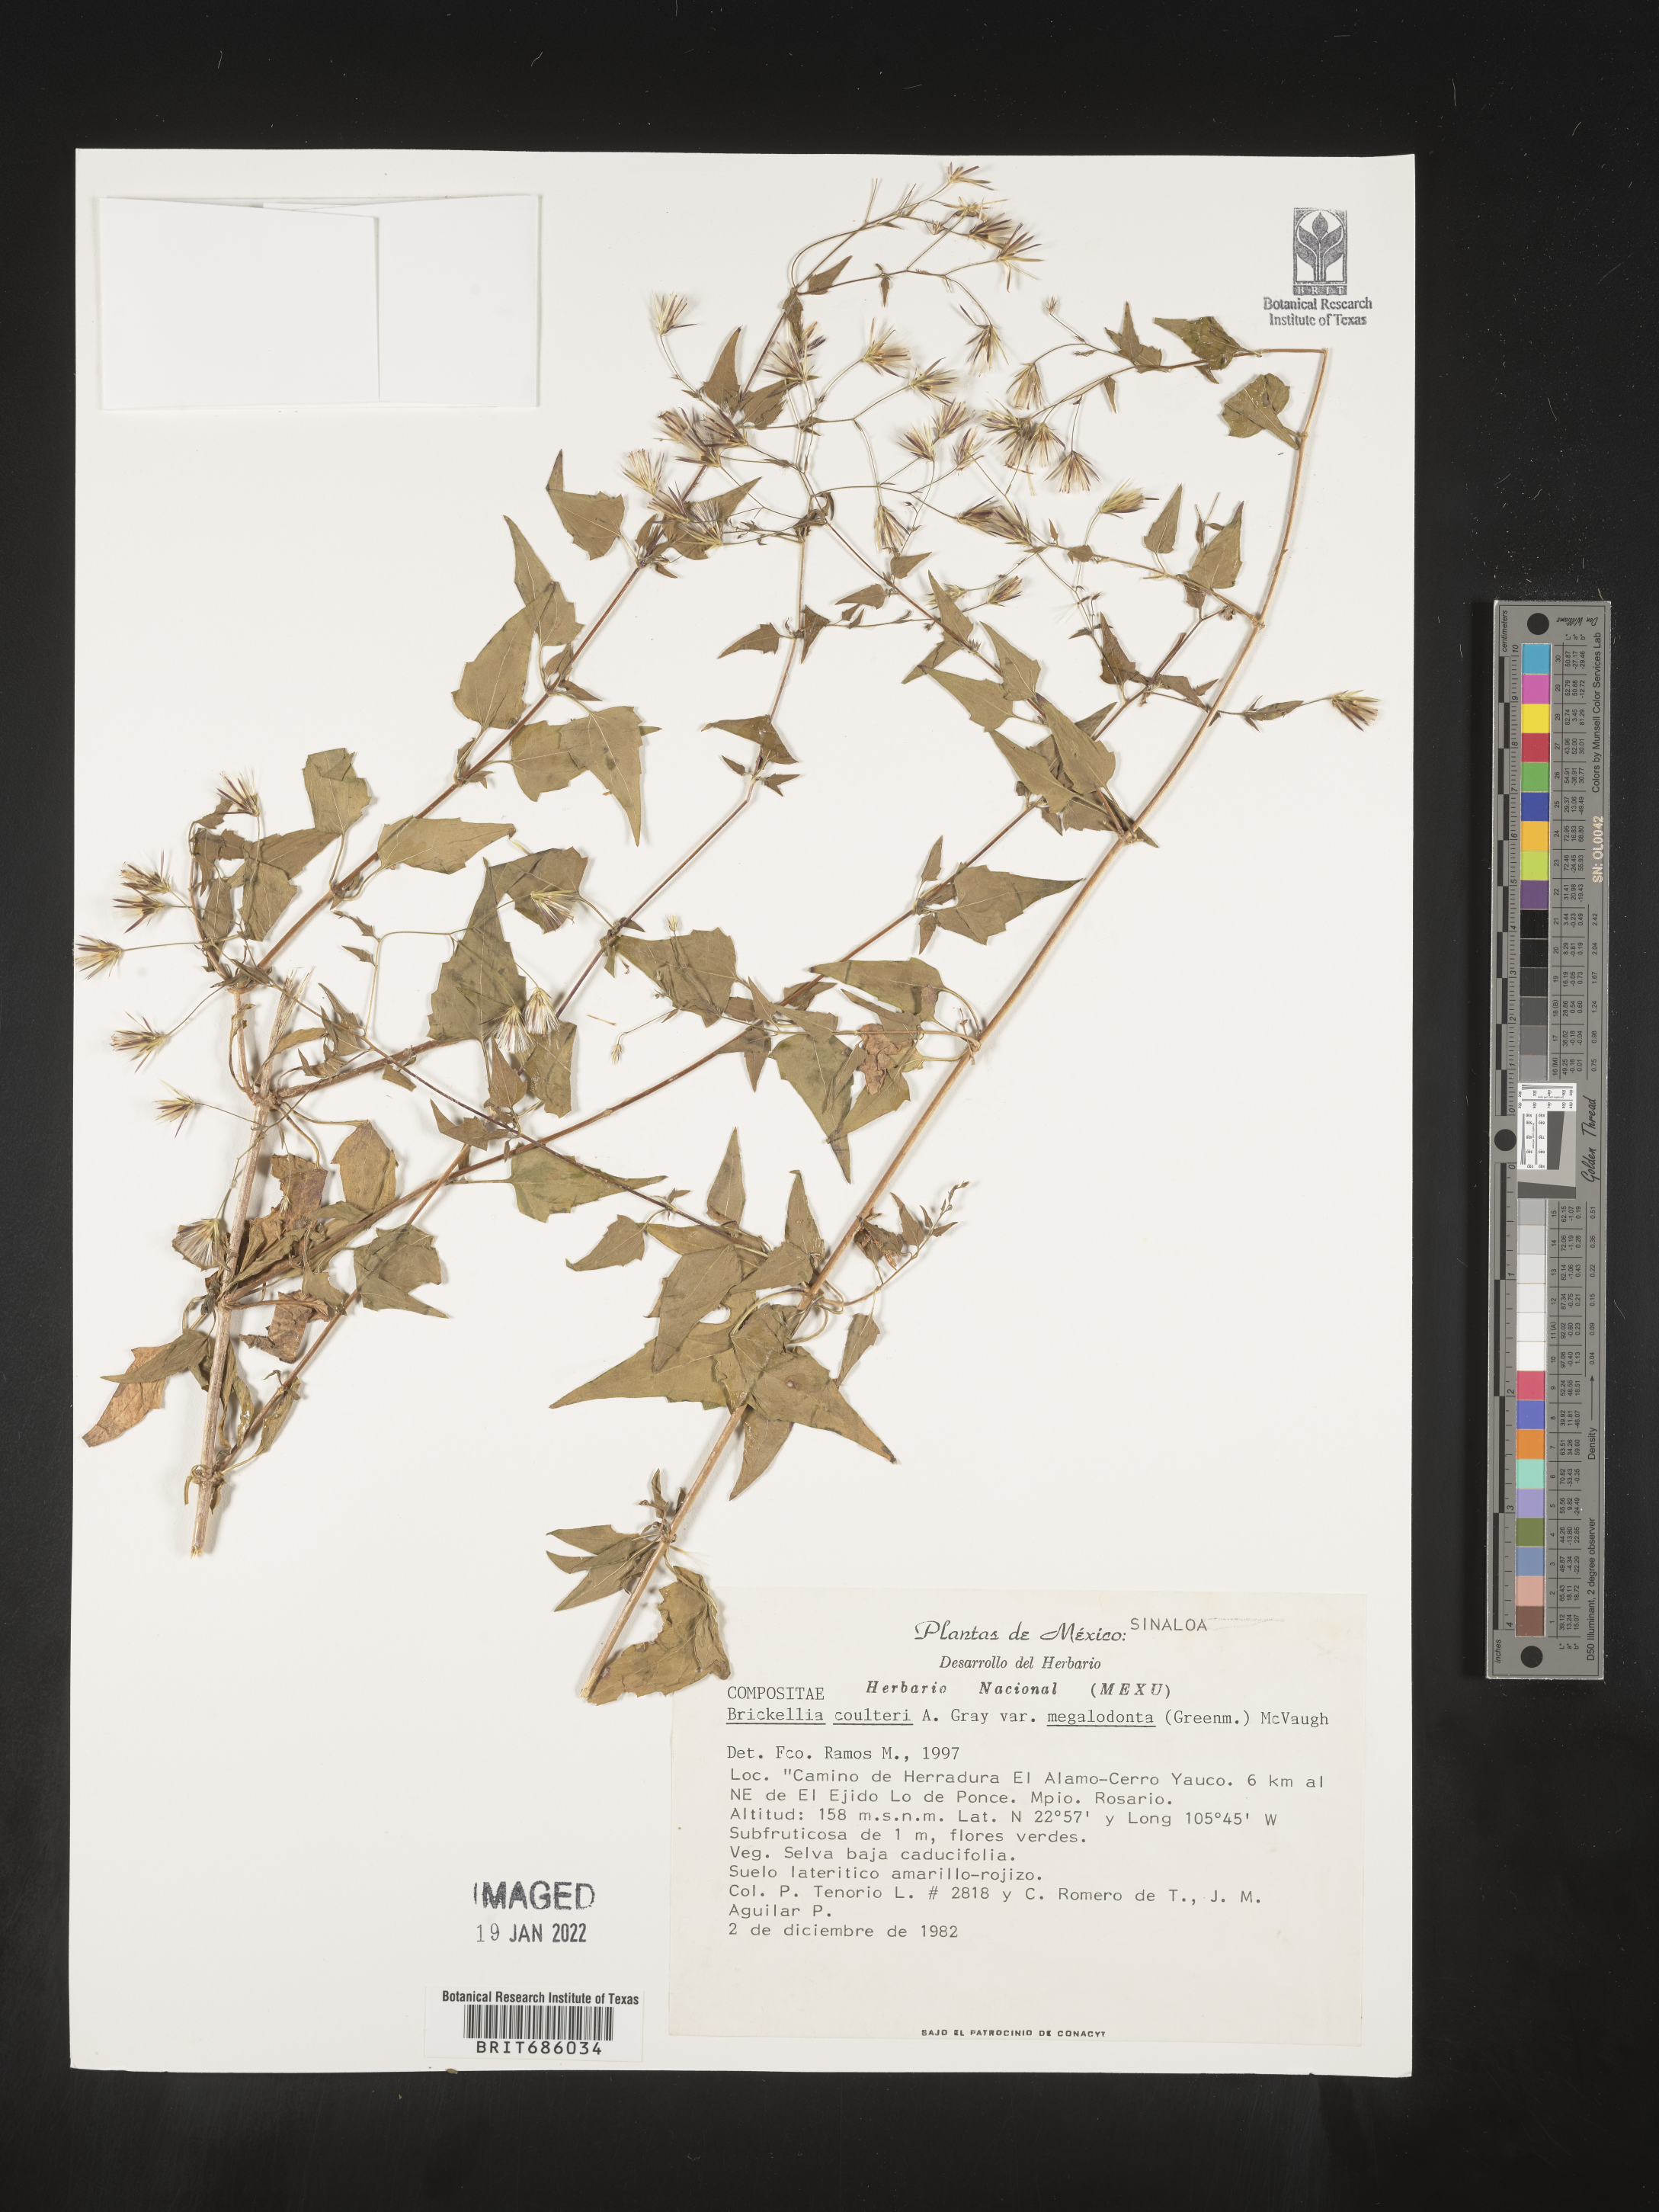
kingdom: Plantae
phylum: Tracheophyta
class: Magnoliopsida
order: Asterales
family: Asteraceae
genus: Brickellia
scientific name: Brickellia
